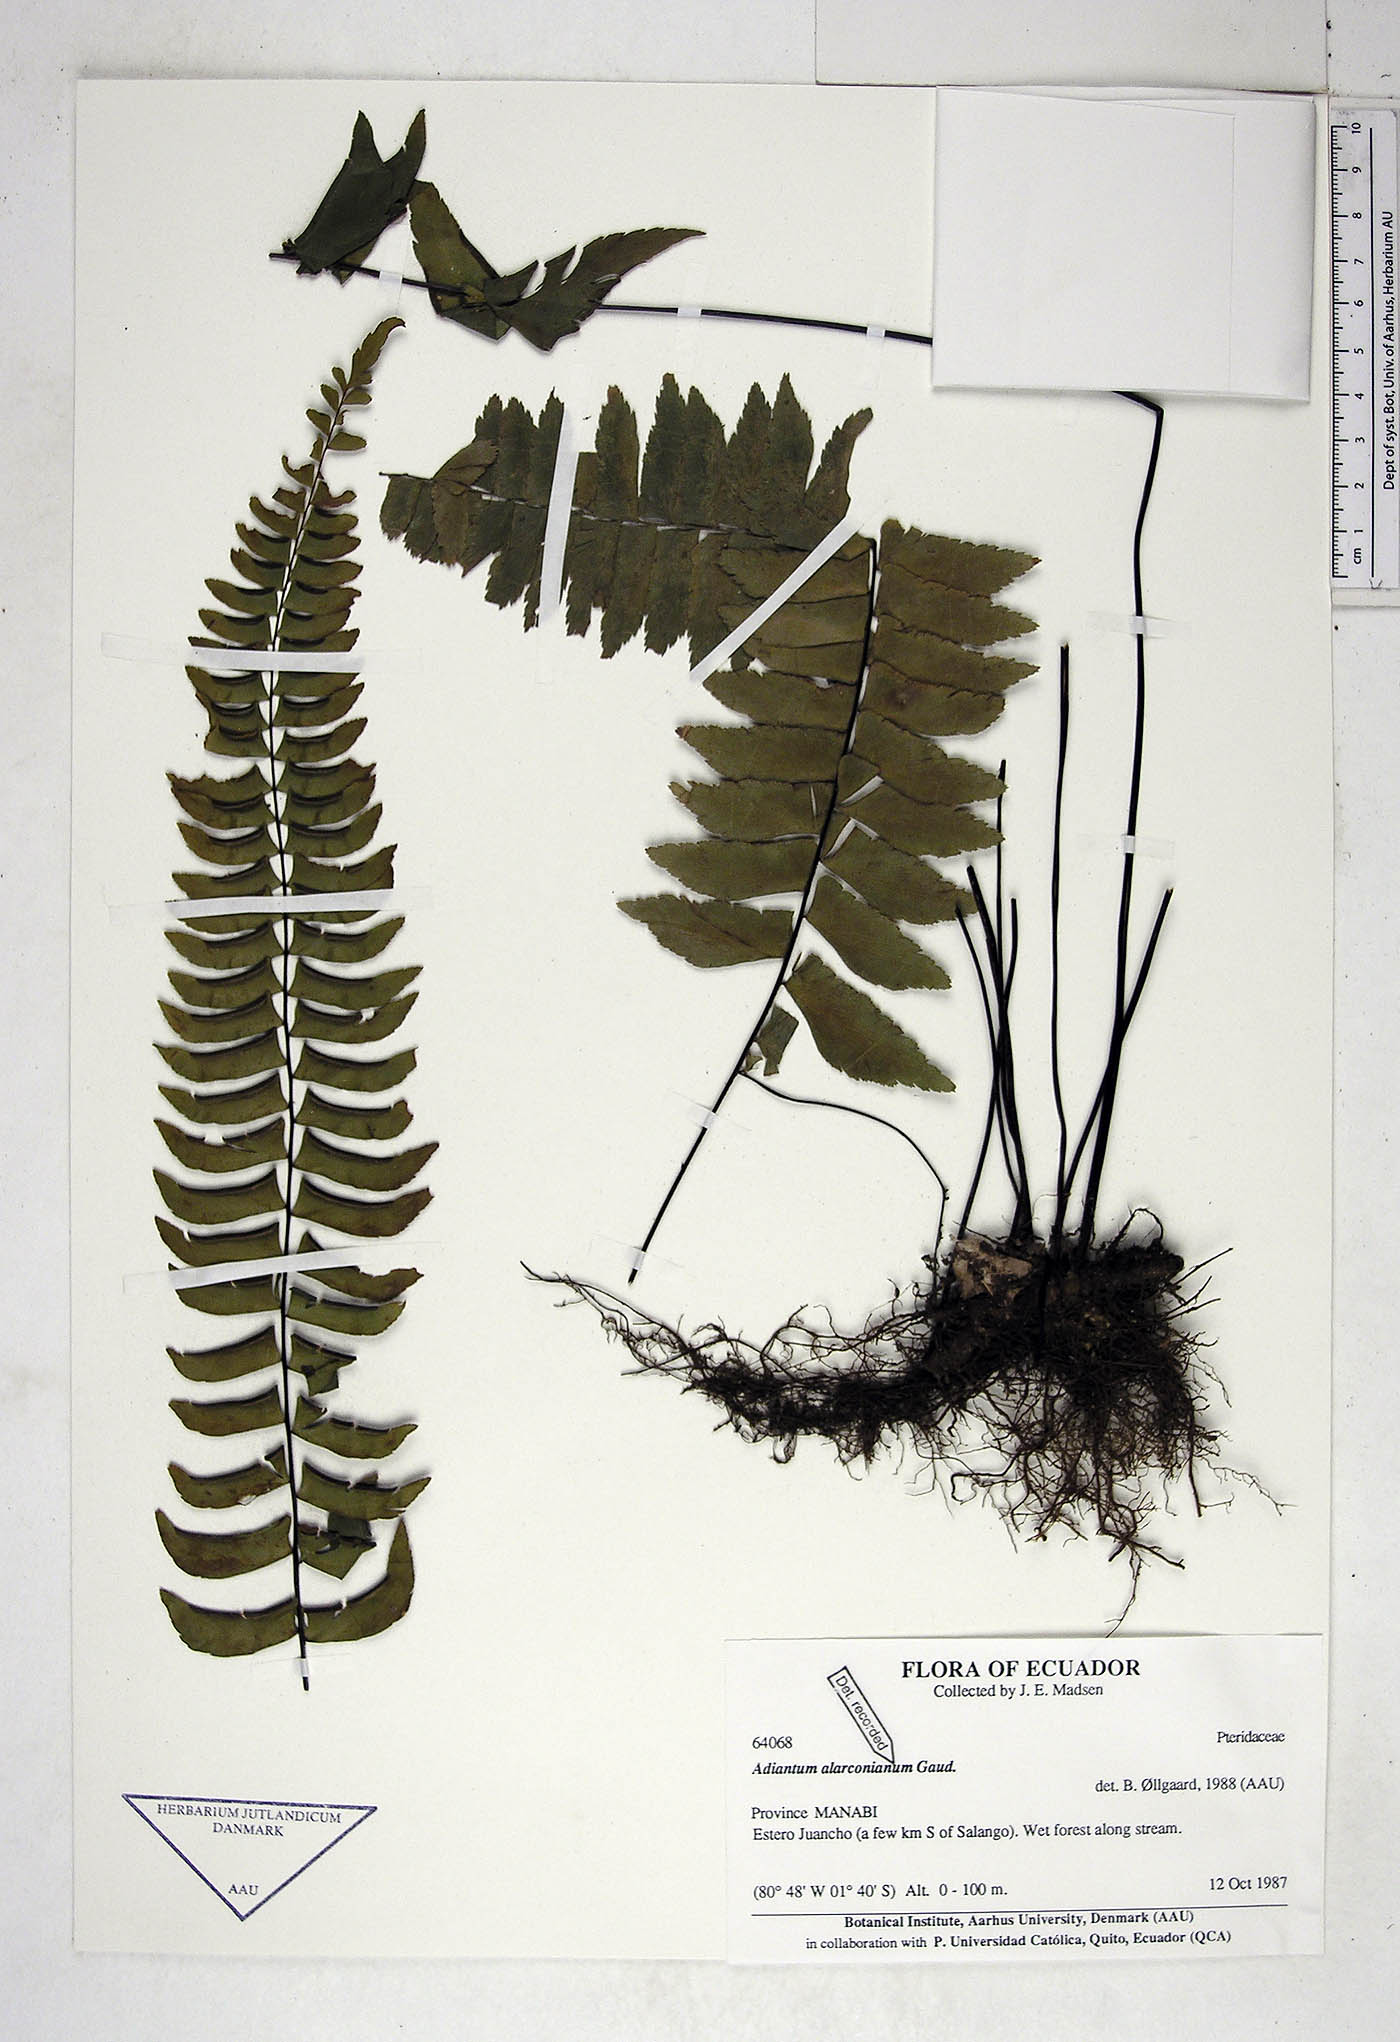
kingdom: Plantae
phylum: Tracheophyta
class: Polypodiopsida
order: Polypodiales
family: Pteridaceae
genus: Adiantum
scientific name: Adiantum alarconianum
